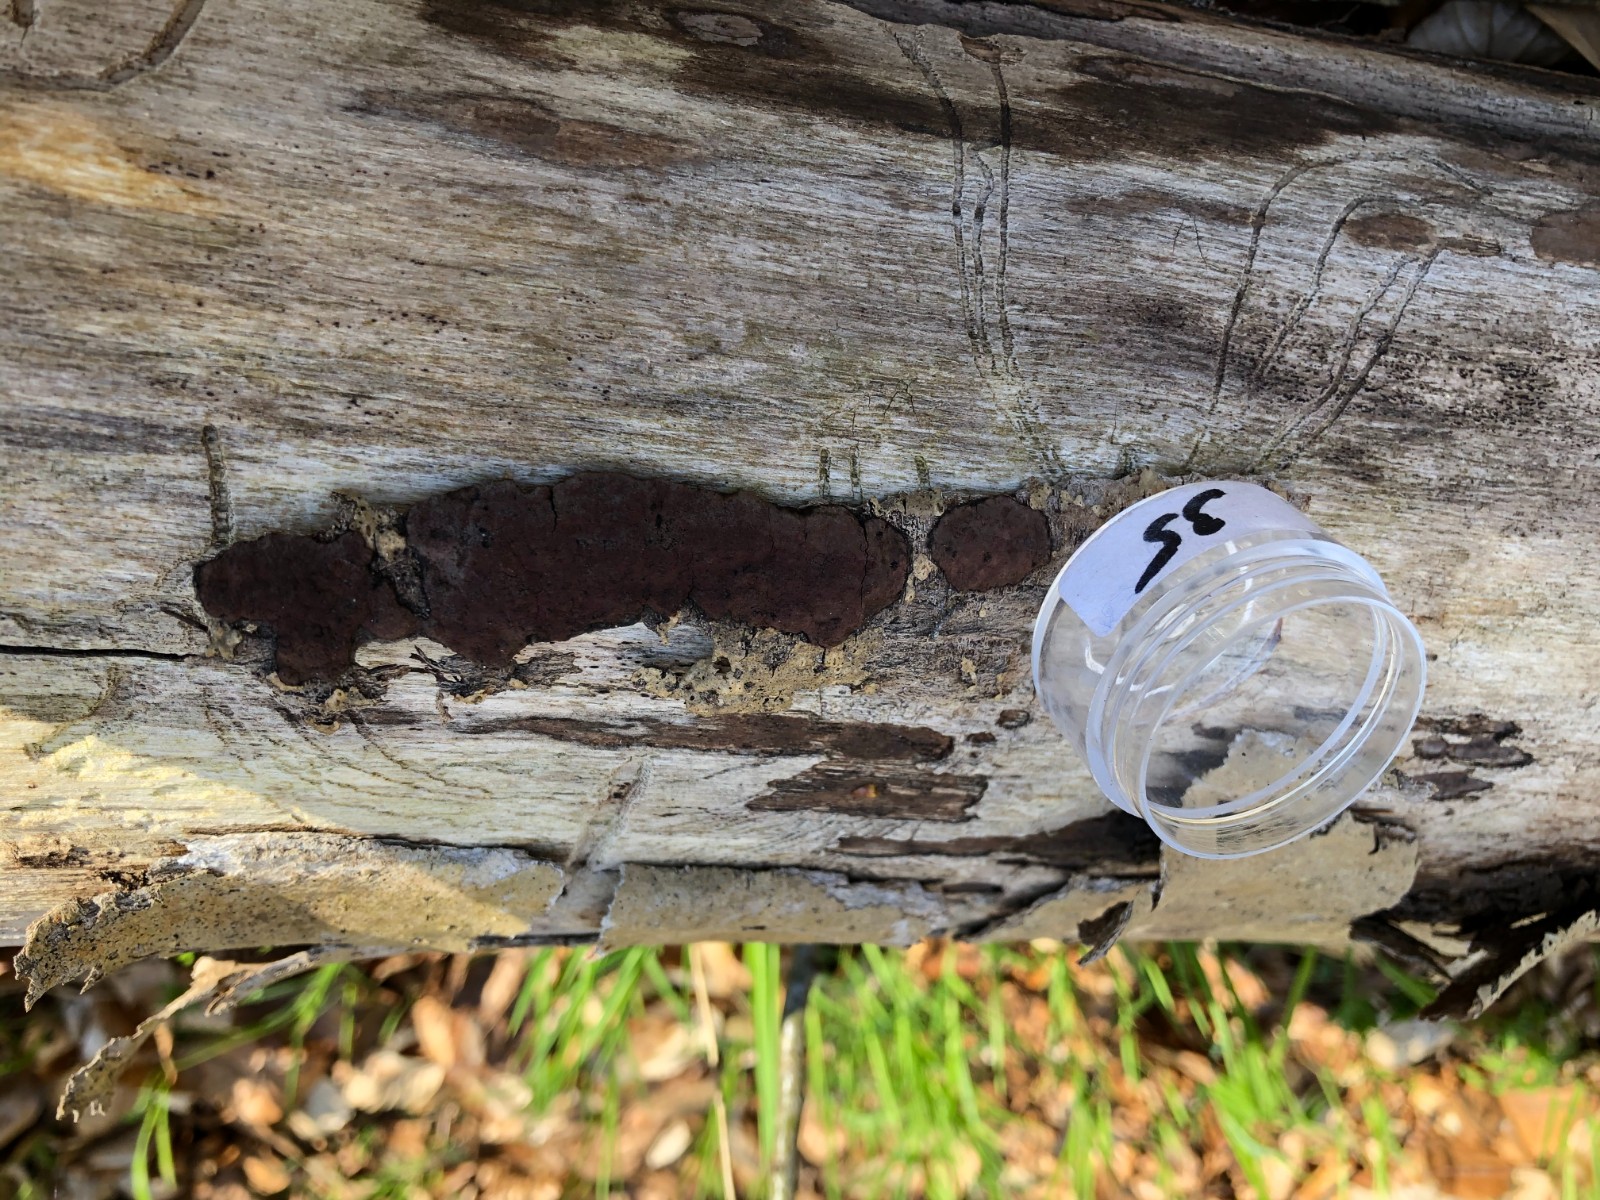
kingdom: Fungi
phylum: Ascomycota
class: Sordariomycetes
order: Xylariales
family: Hypoxylaceae
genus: Hypoxylon
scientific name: Hypoxylon petriniae
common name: nedsænket kulbær
